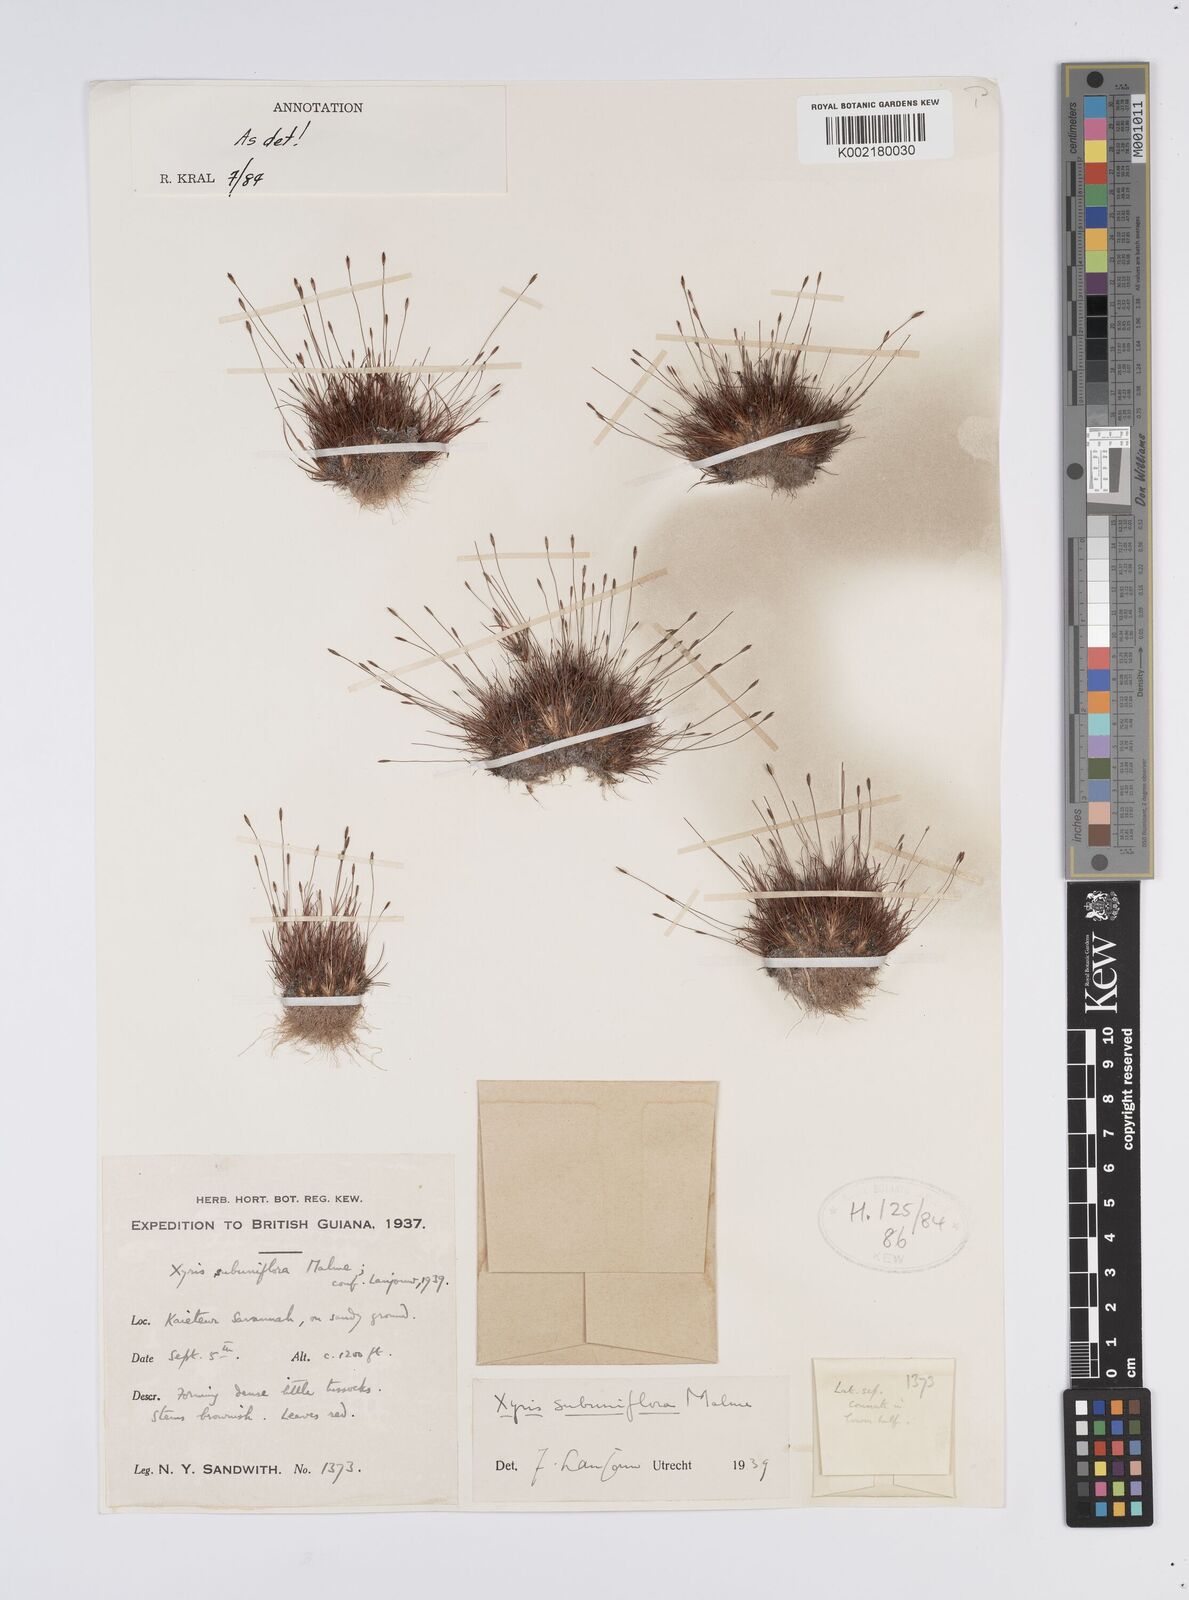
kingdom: Plantae
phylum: Tracheophyta
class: Liliopsida
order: Poales
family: Xyridaceae
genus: Xyris
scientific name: Xyris subuniflora
